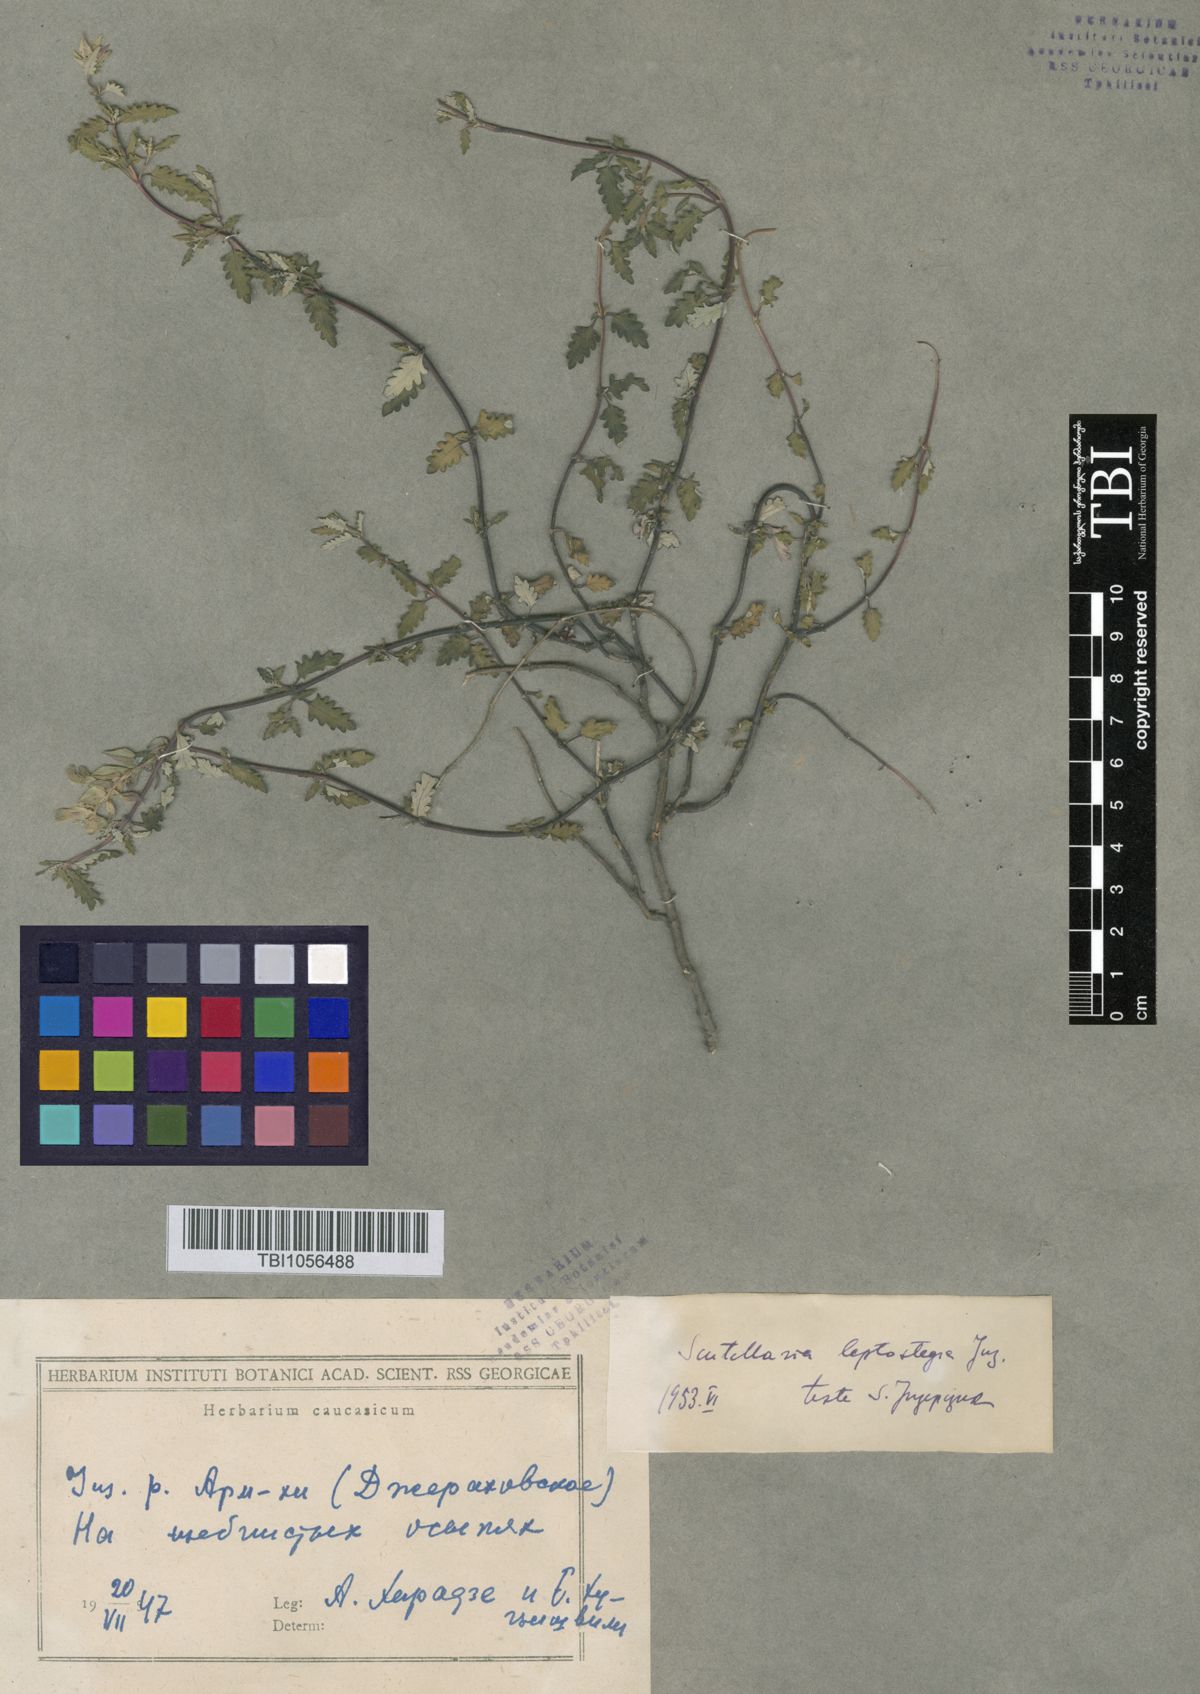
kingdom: Plantae
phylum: Tracheophyta
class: Magnoliopsida
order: Lamiales
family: Lamiaceae
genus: Scutellaria
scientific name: Scutellaria leptostegia
